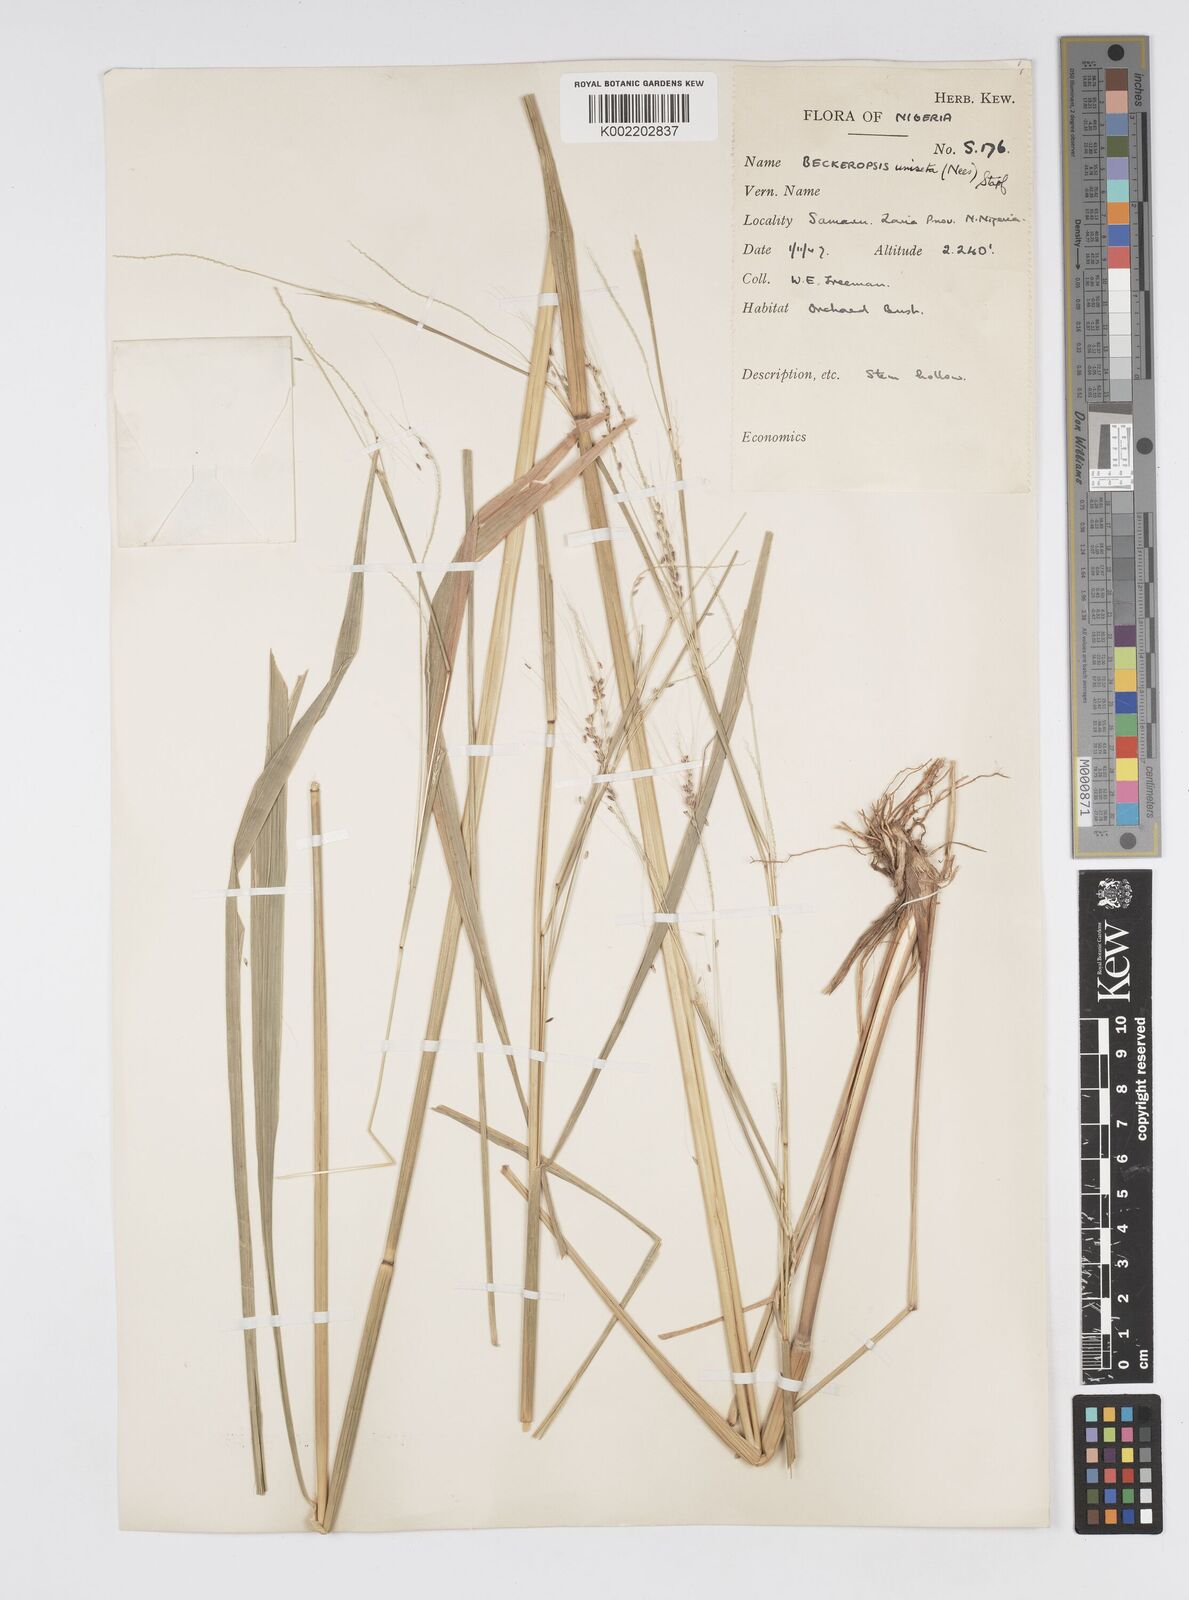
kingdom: Plantae
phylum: Tracheophyta
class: Liliopsida
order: Poales
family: Poaceae
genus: Cenchrus
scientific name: Cenchrus unisetus
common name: Natal grass
